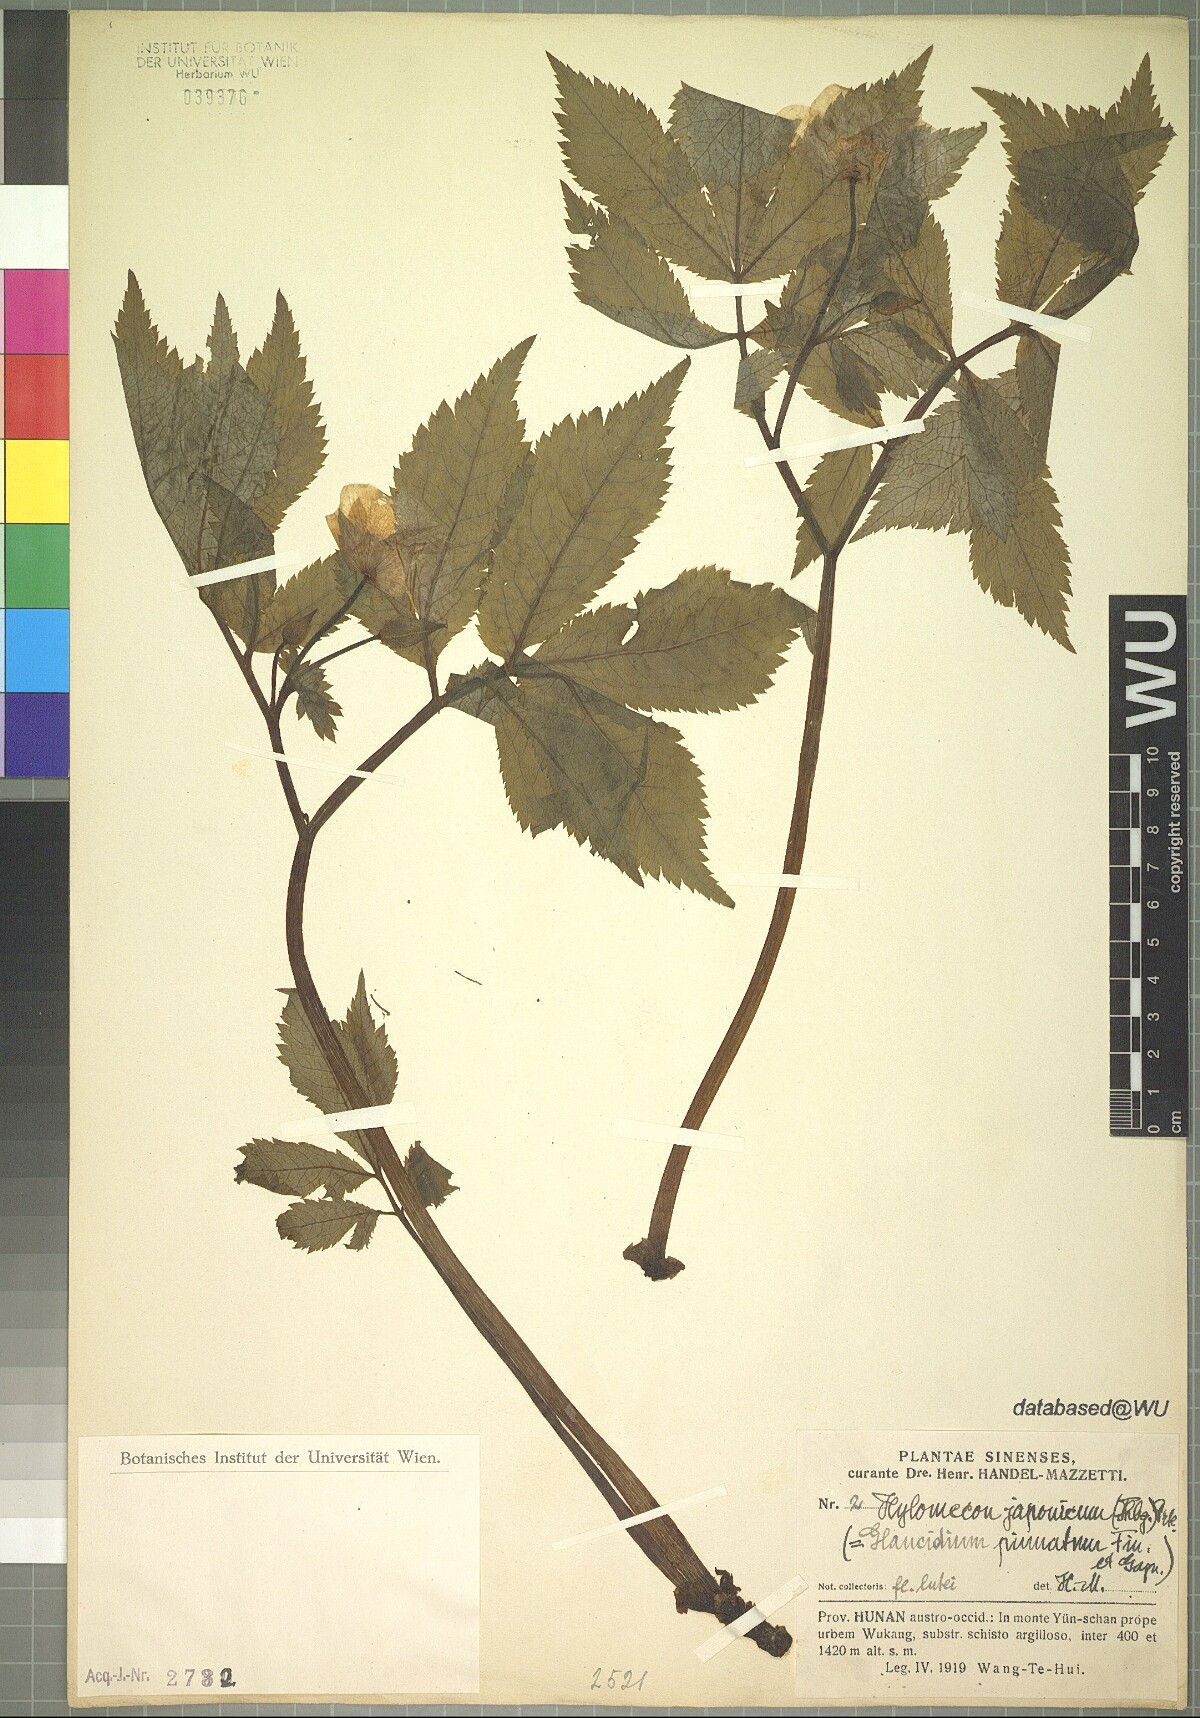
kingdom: Plantae
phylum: Tracheophyta
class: Magnoliopsida
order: Ranunculales
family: Papaveraceae
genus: Hylomecon
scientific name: Hylomecon japonicum
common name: Forest-poppy
